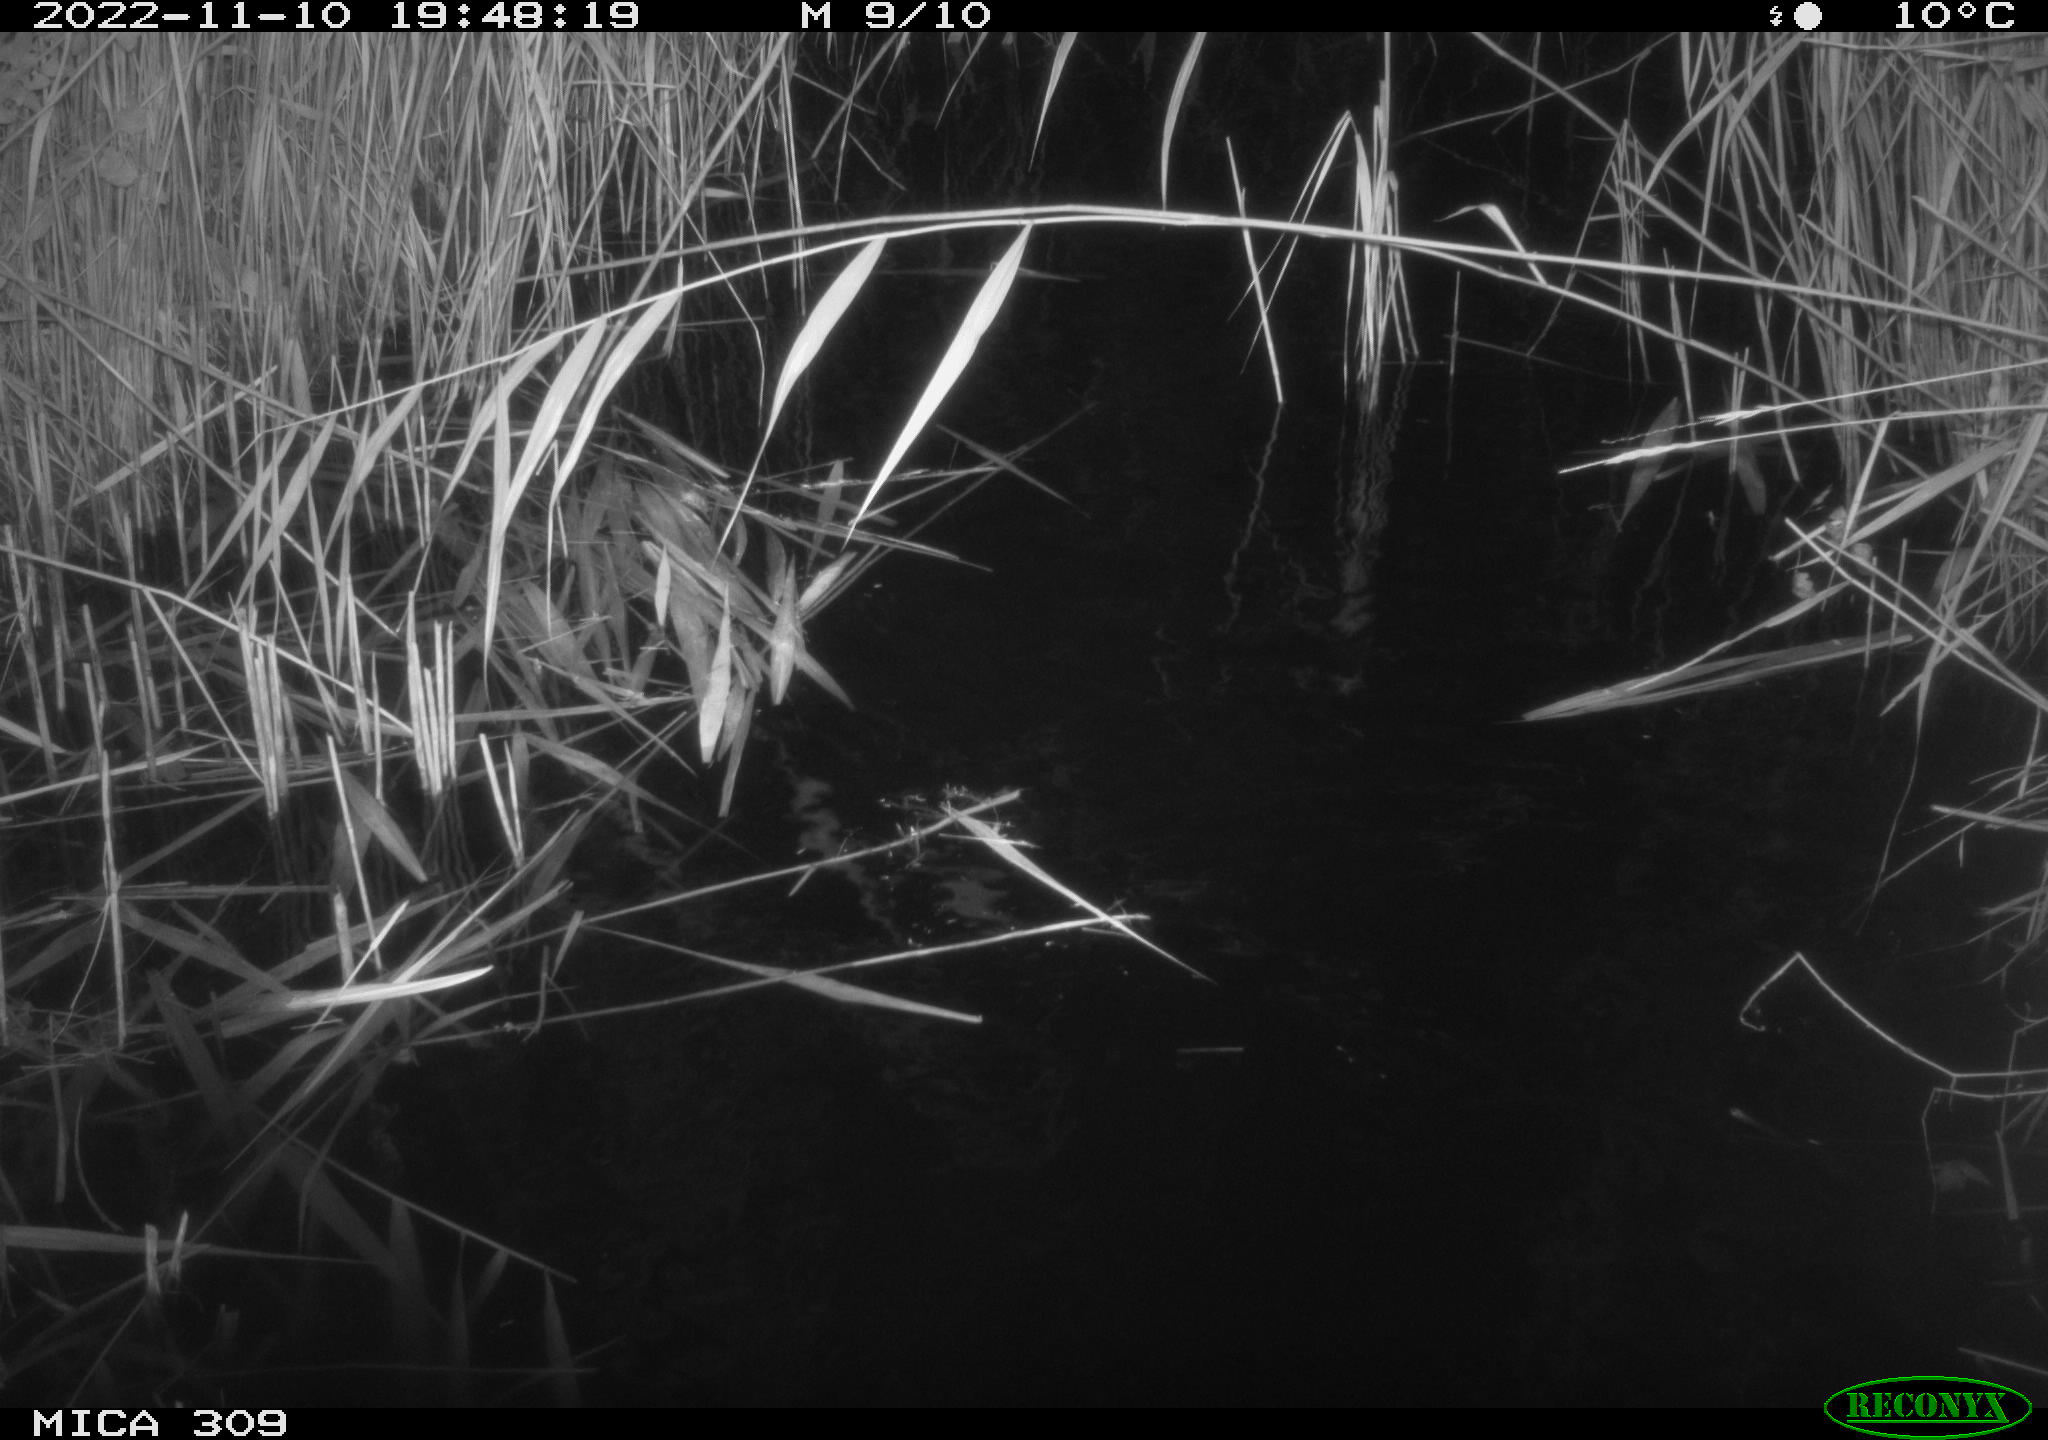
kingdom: Animalia
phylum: Chordata
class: Mammalia
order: Rodentia
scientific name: Rodentia
